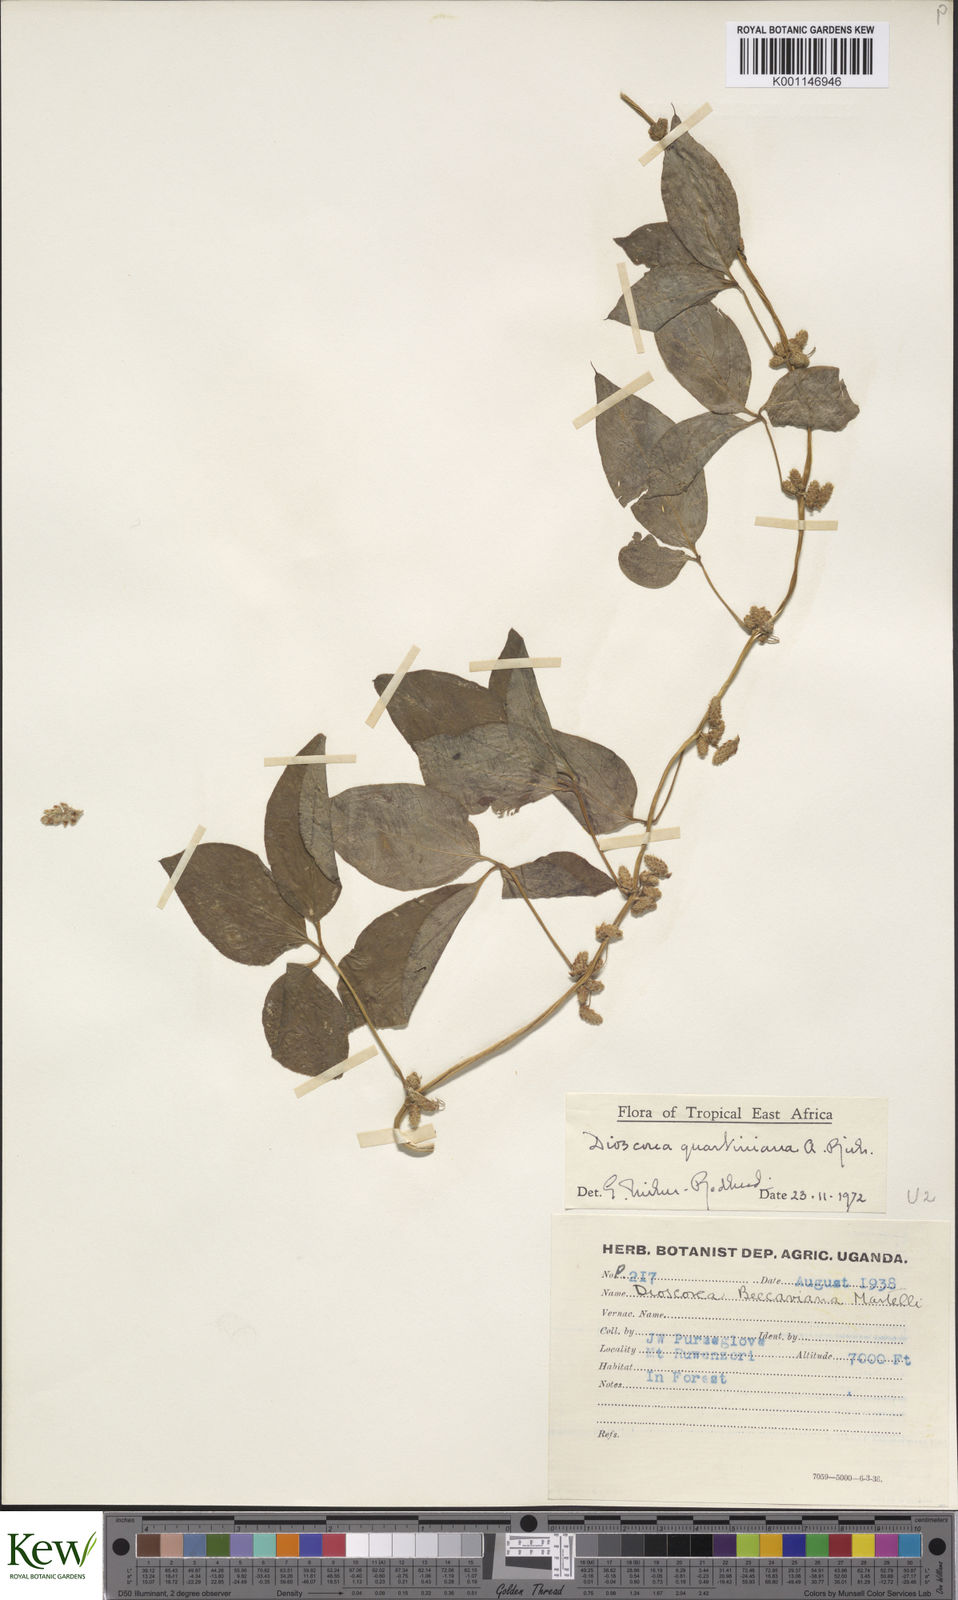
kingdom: Plantae
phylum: Tracheophyta
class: Liliopsida
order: Dioscoreales
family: Dioscoreaceae
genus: Dioscorea
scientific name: Dioscorea quartiniana
